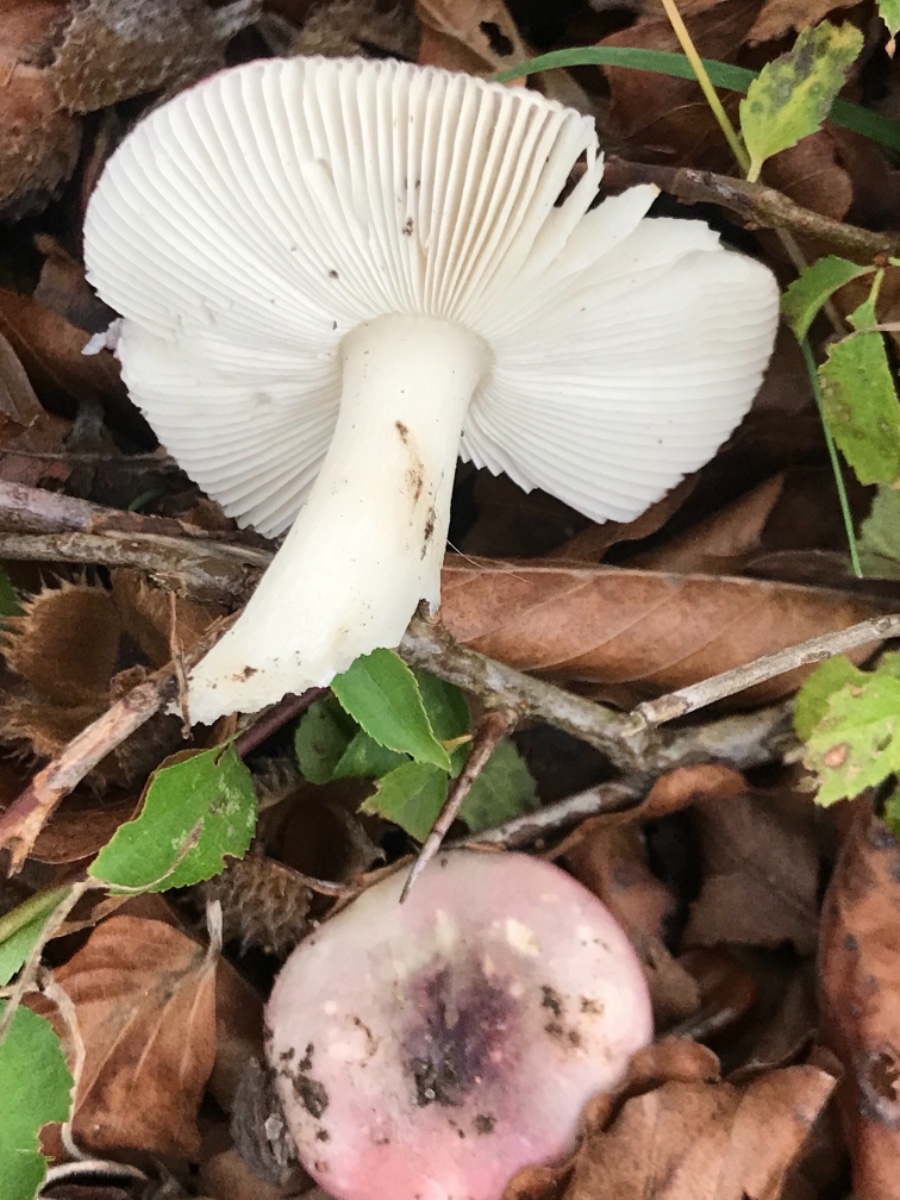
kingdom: Fungi
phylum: Basidiomycota
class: Agaricomycetes
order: Russulales
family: Russulaceae
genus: Russula
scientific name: Russula
